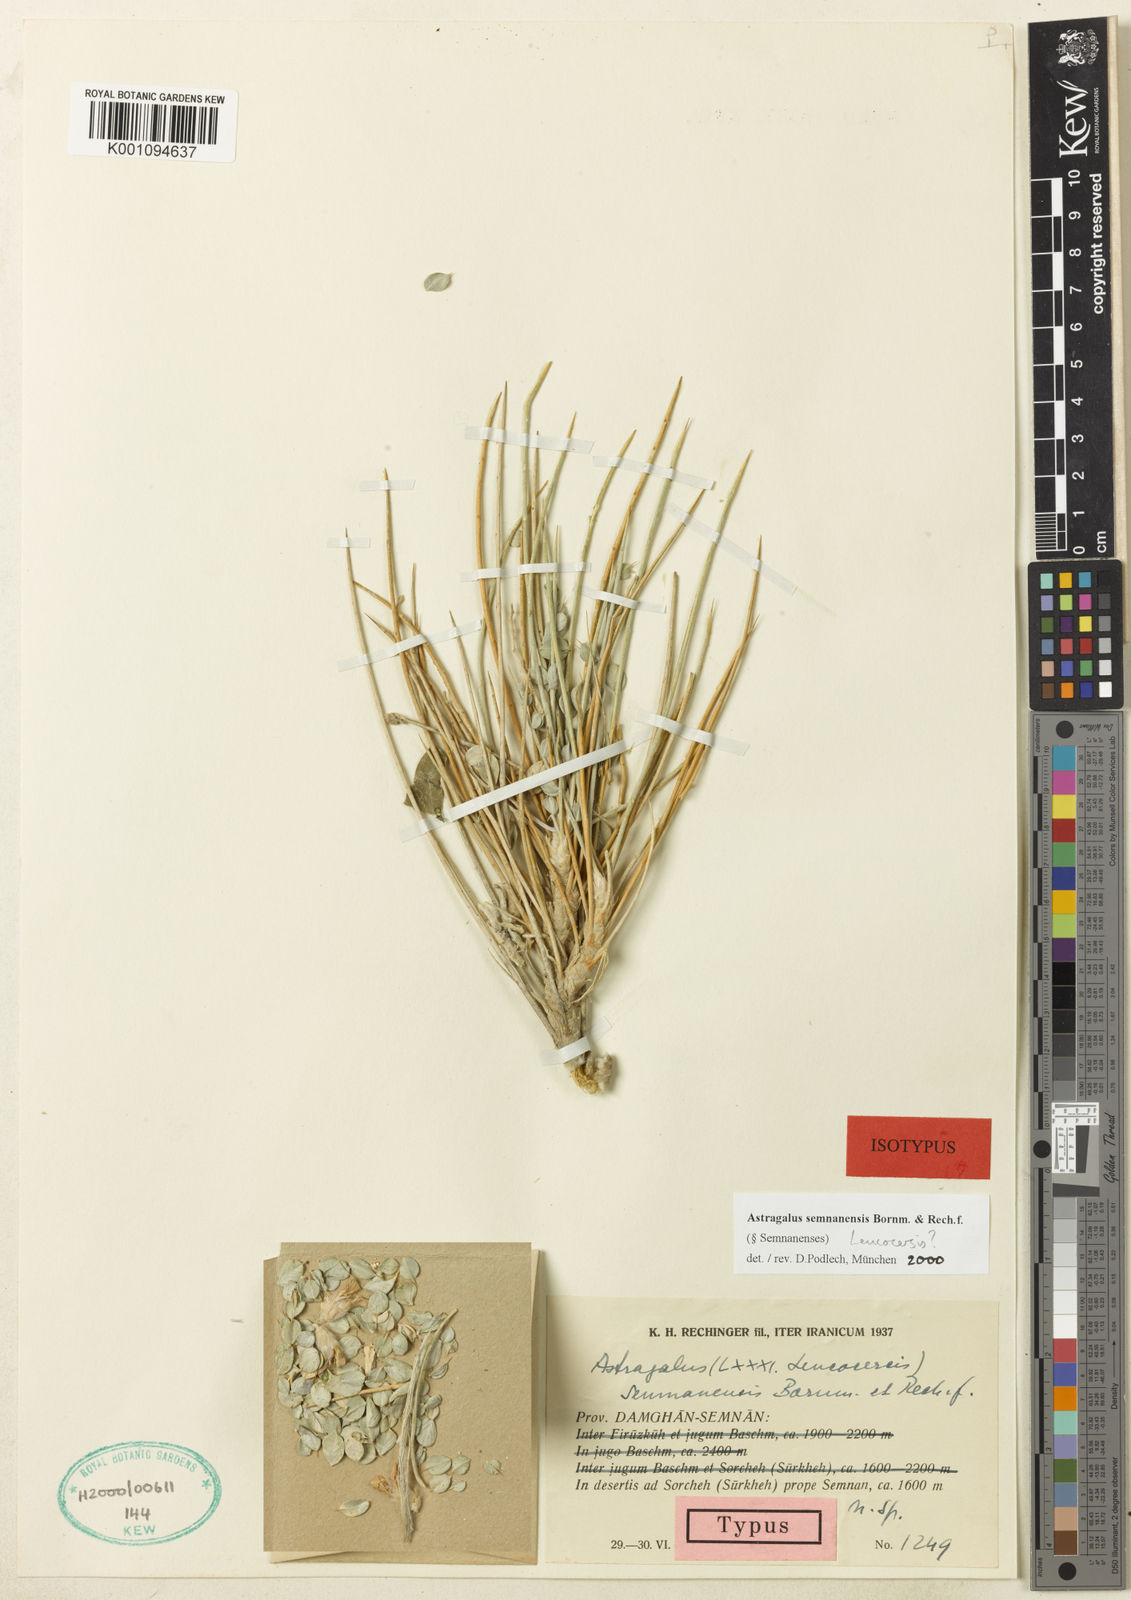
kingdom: Plantae
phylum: Tracheophyta
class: Magnoliopsida
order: Fabales
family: Fabaceae
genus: Astragalus
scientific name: Astragalus
